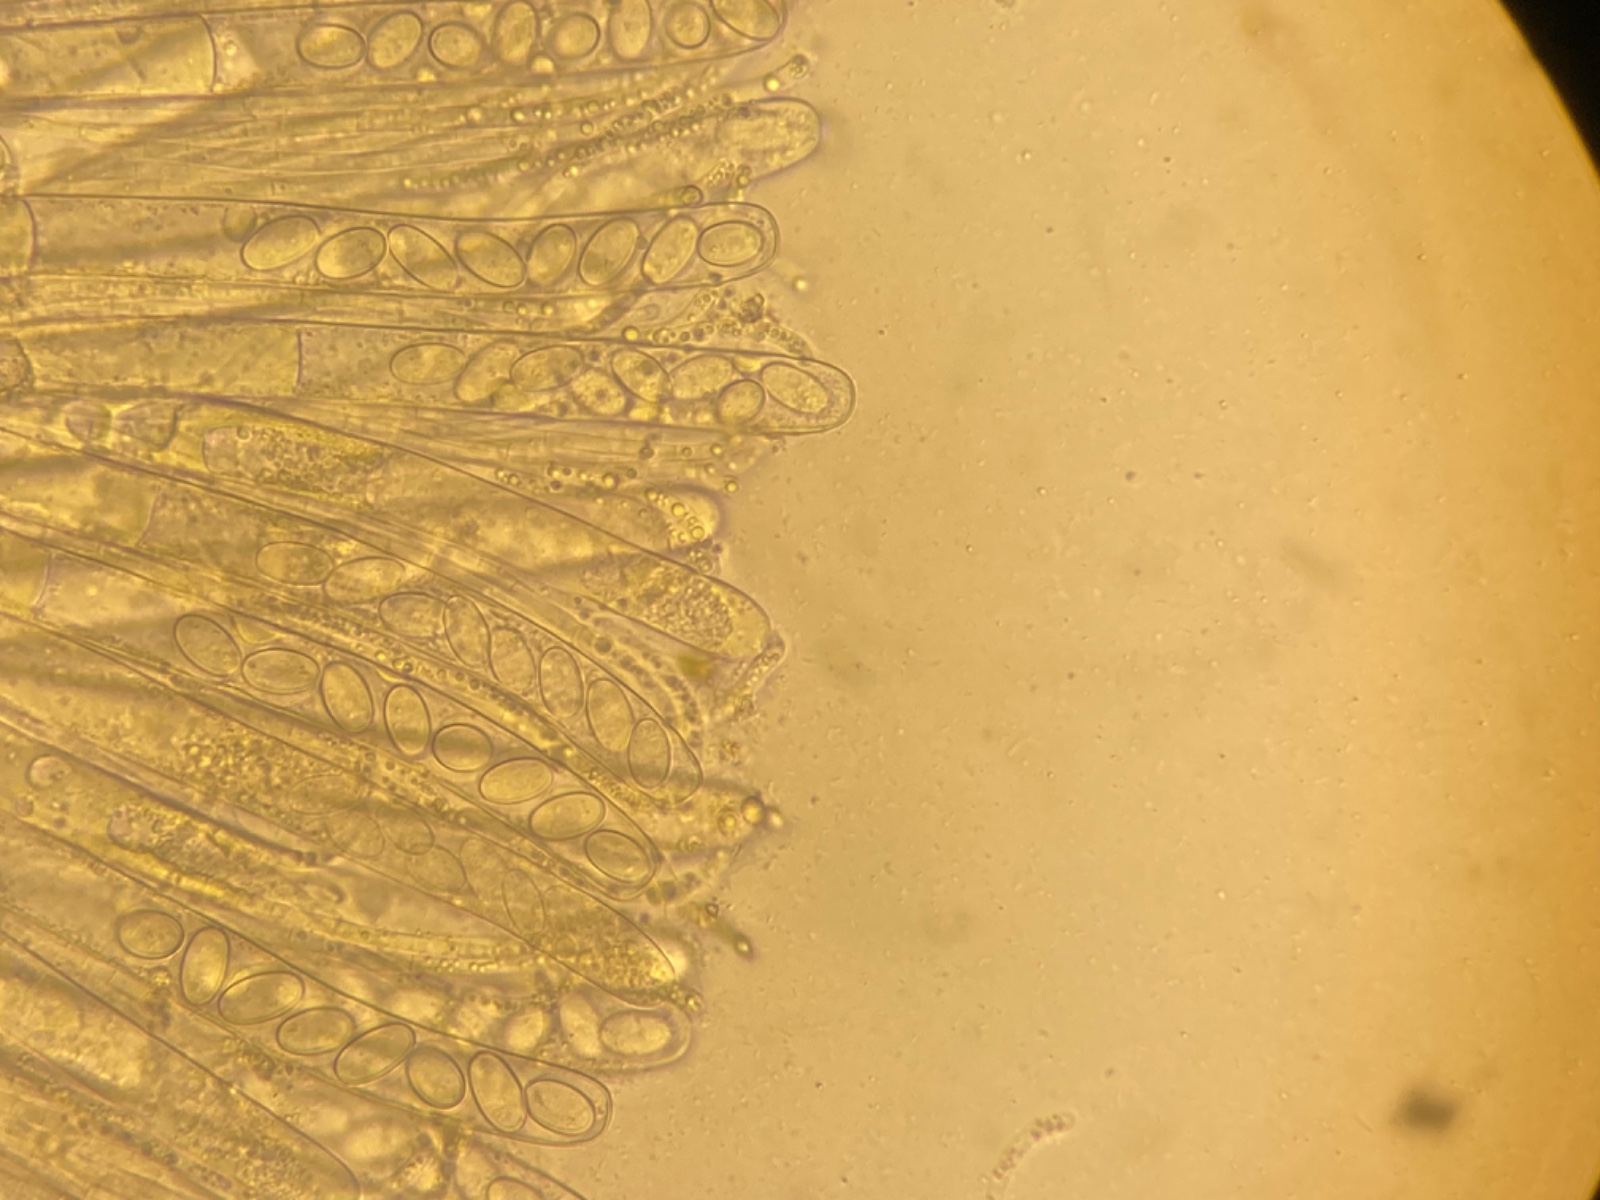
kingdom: Fungi
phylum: Ascomycota
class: Pezizomycetes
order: Pezizales
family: Pezizaceae
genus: Peziza
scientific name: Peziza buxea
